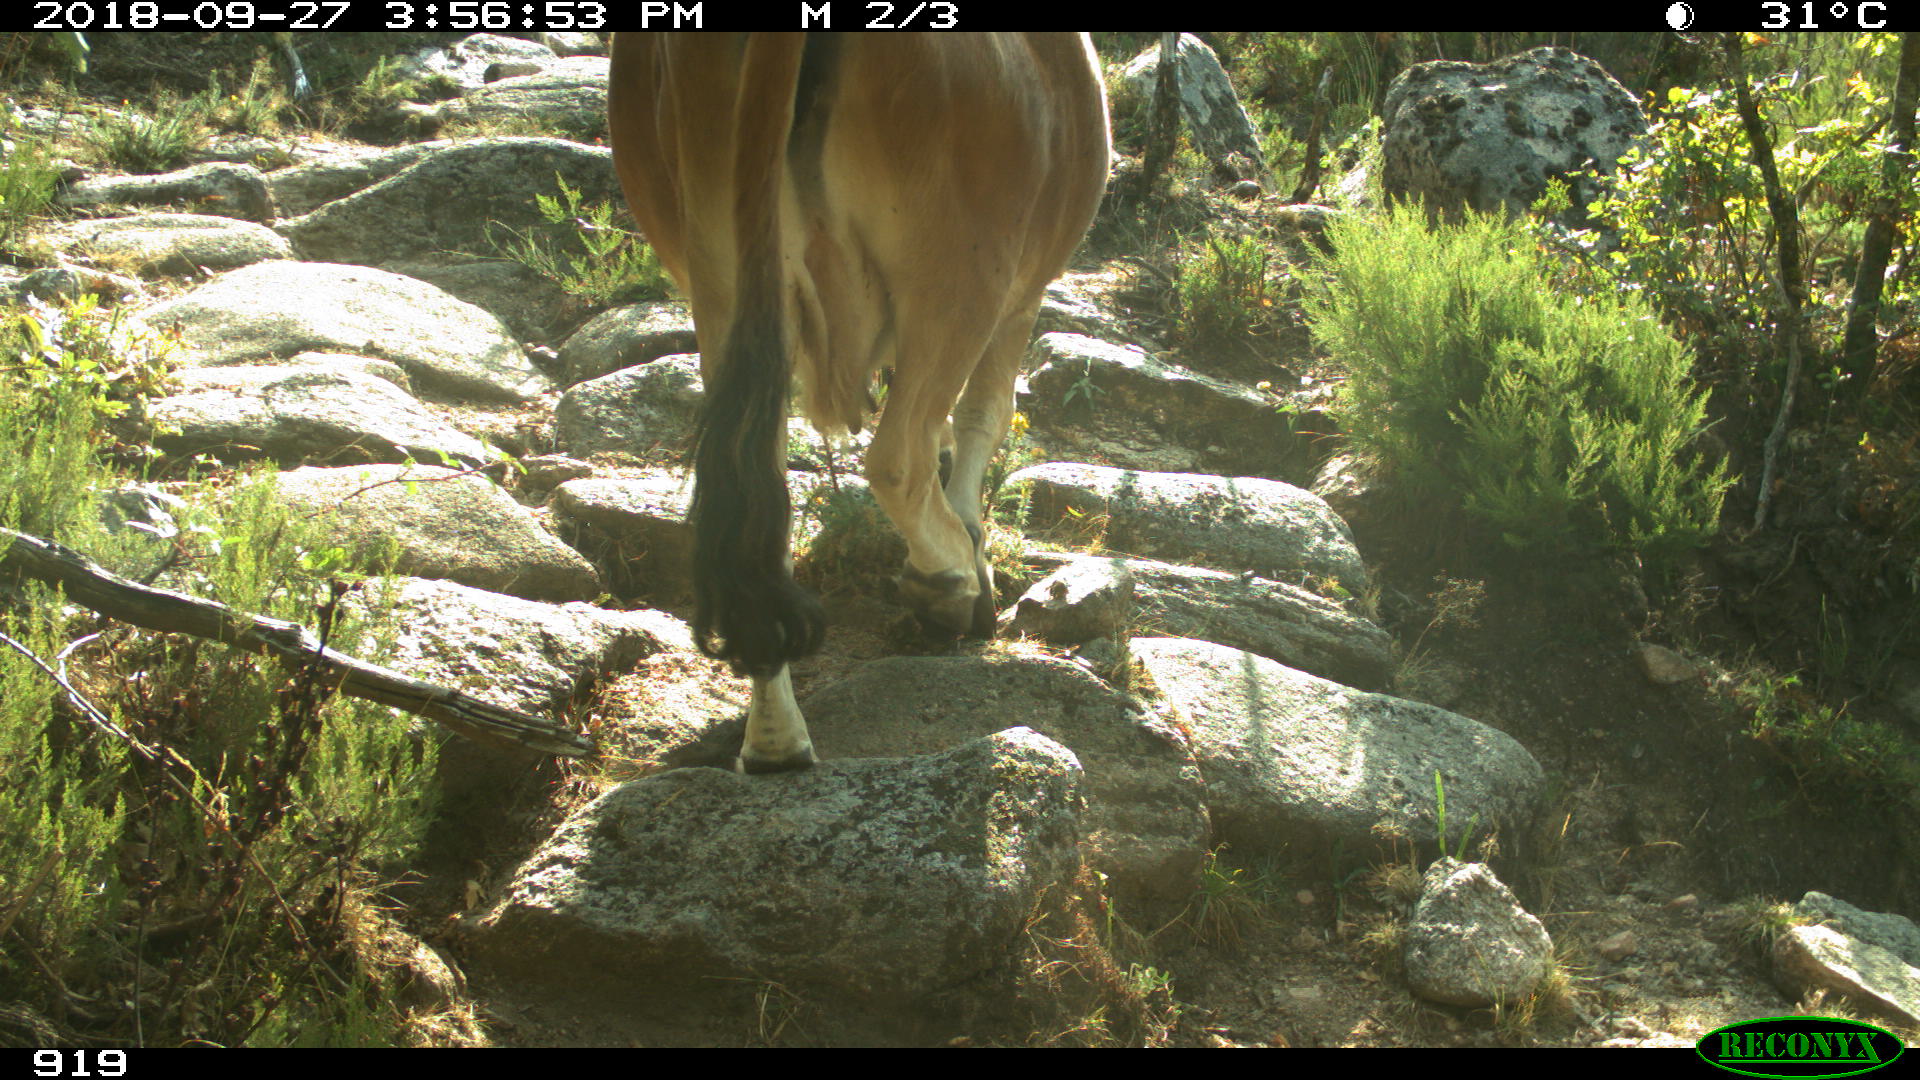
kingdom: Animalia
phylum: Chordata
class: Mammalia
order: Artiodactyla
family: Bovidae
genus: Bos
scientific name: Bos taurus
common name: Domesticated cattle
